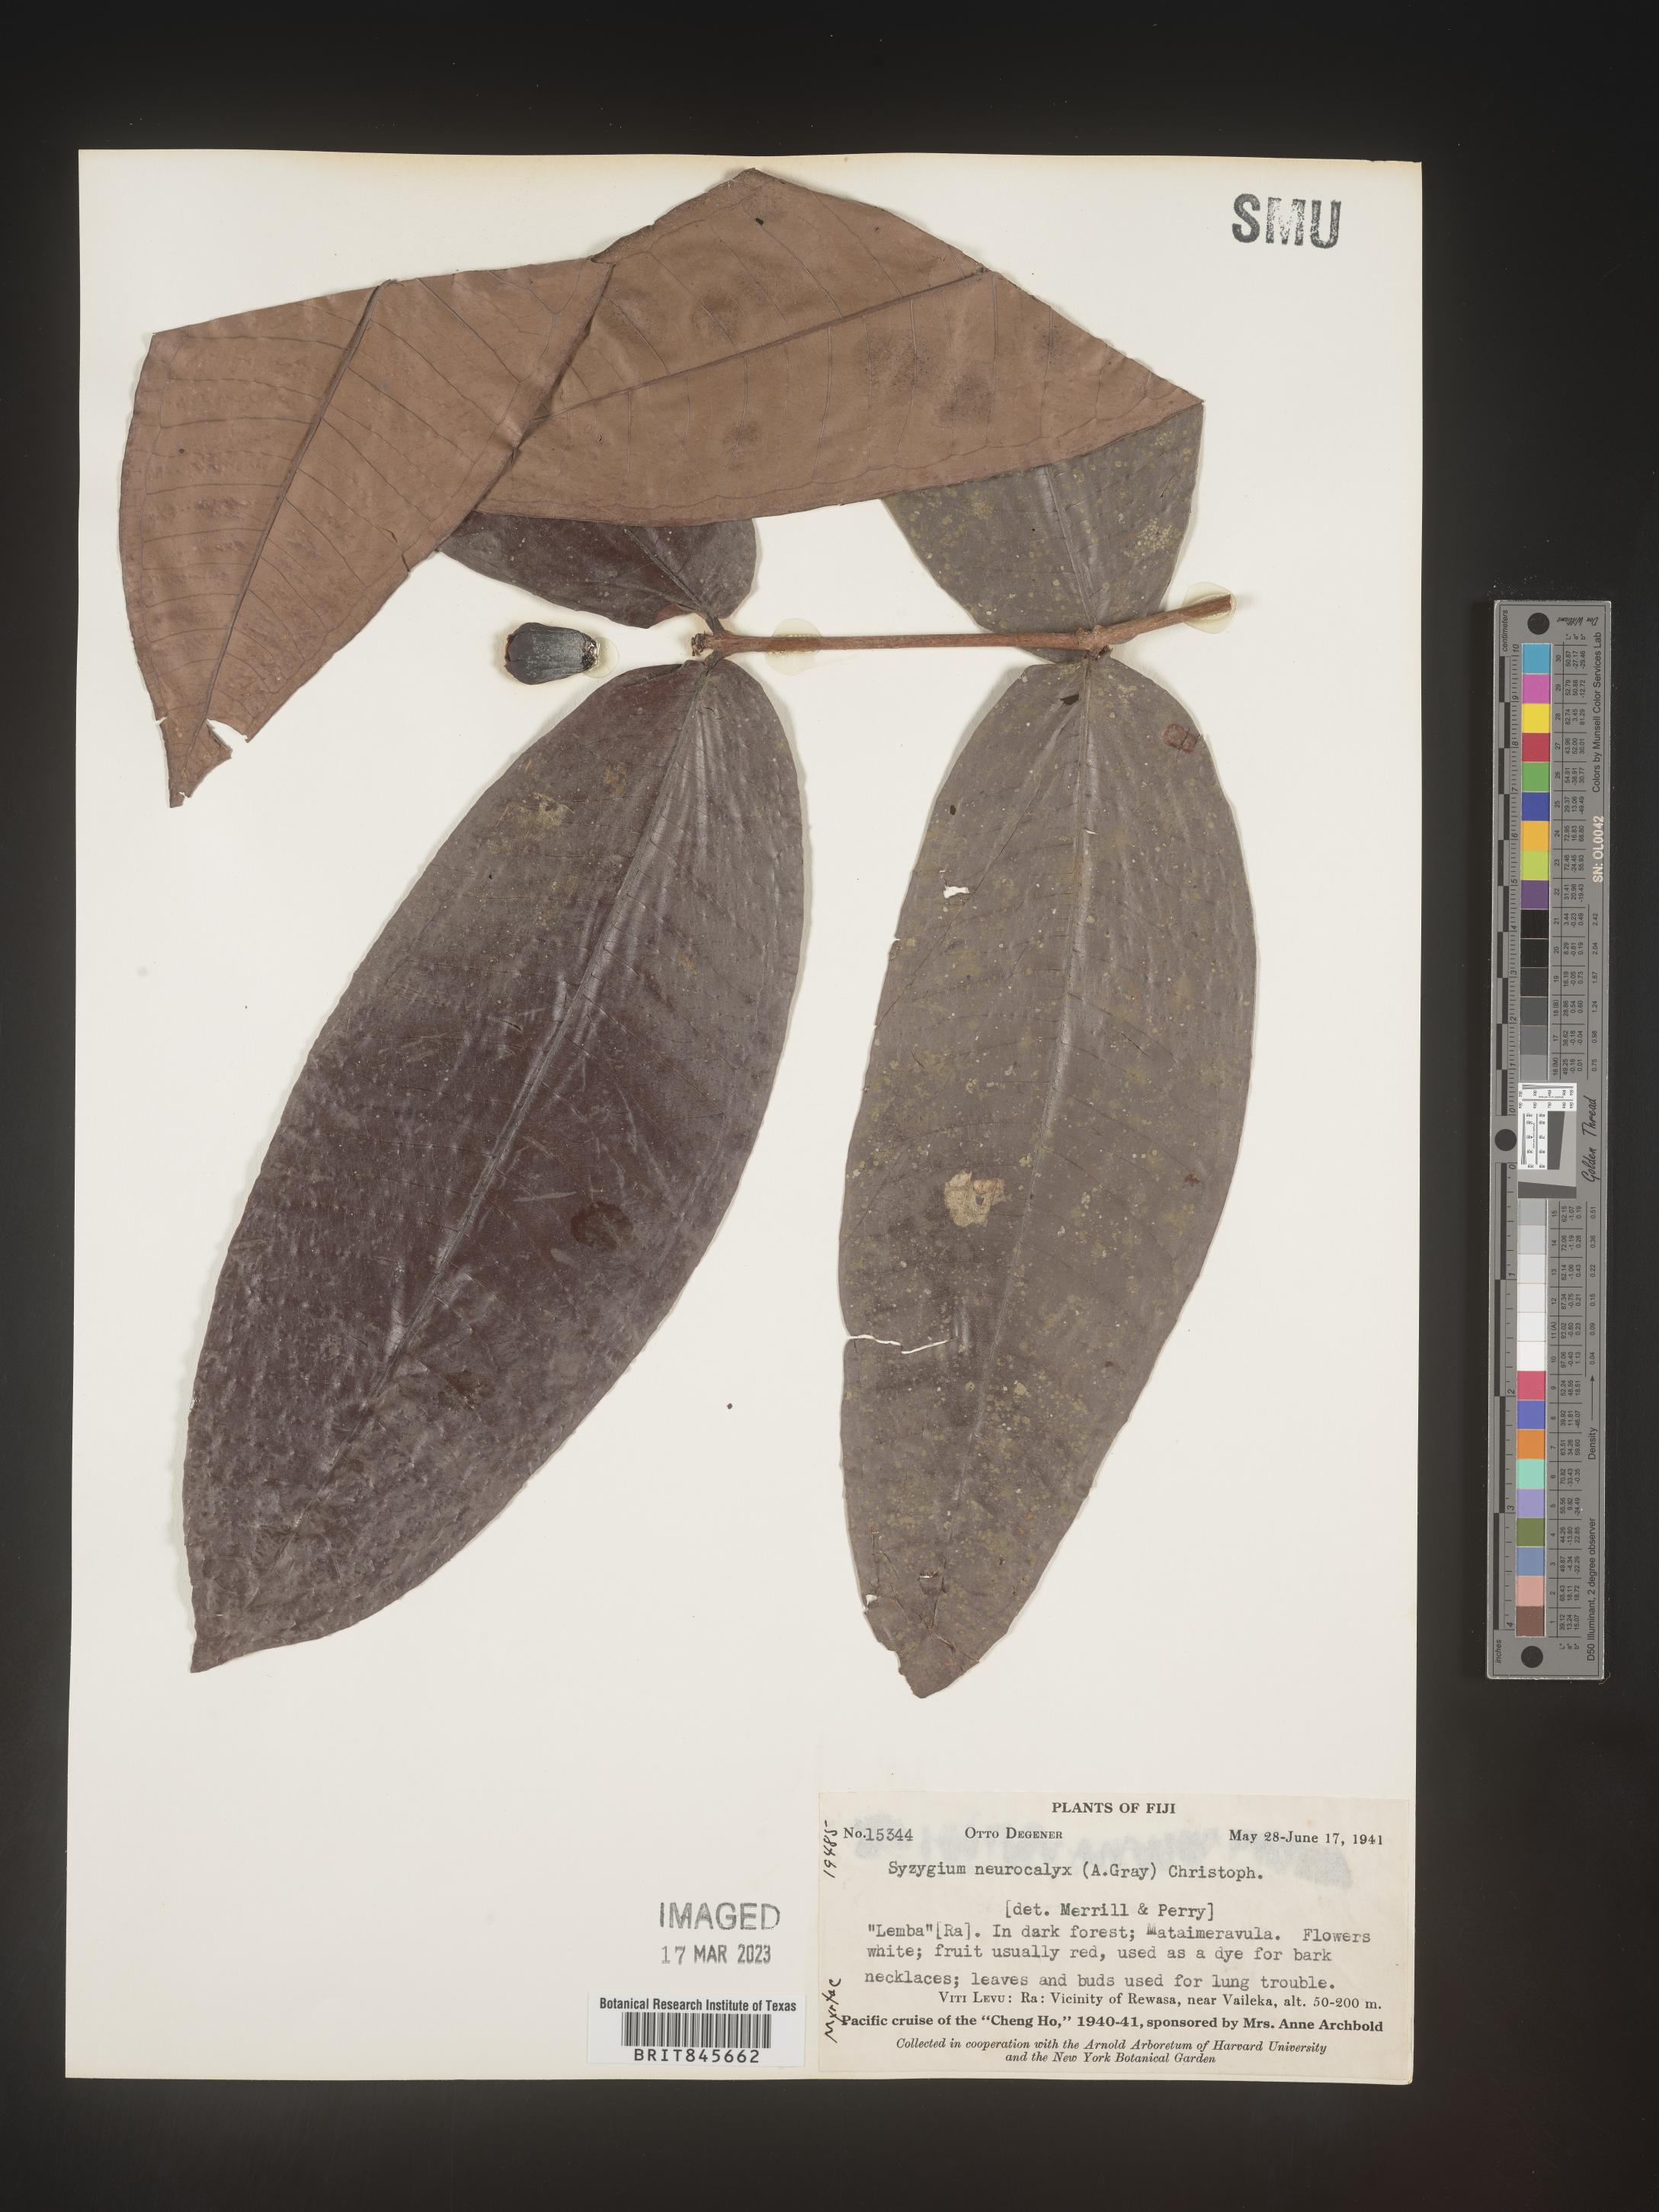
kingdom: Plantae
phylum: Tracheophyta
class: Magnoliopsida
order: Myrtales
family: Myrtaceae
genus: Syzygium
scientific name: Syzygium
